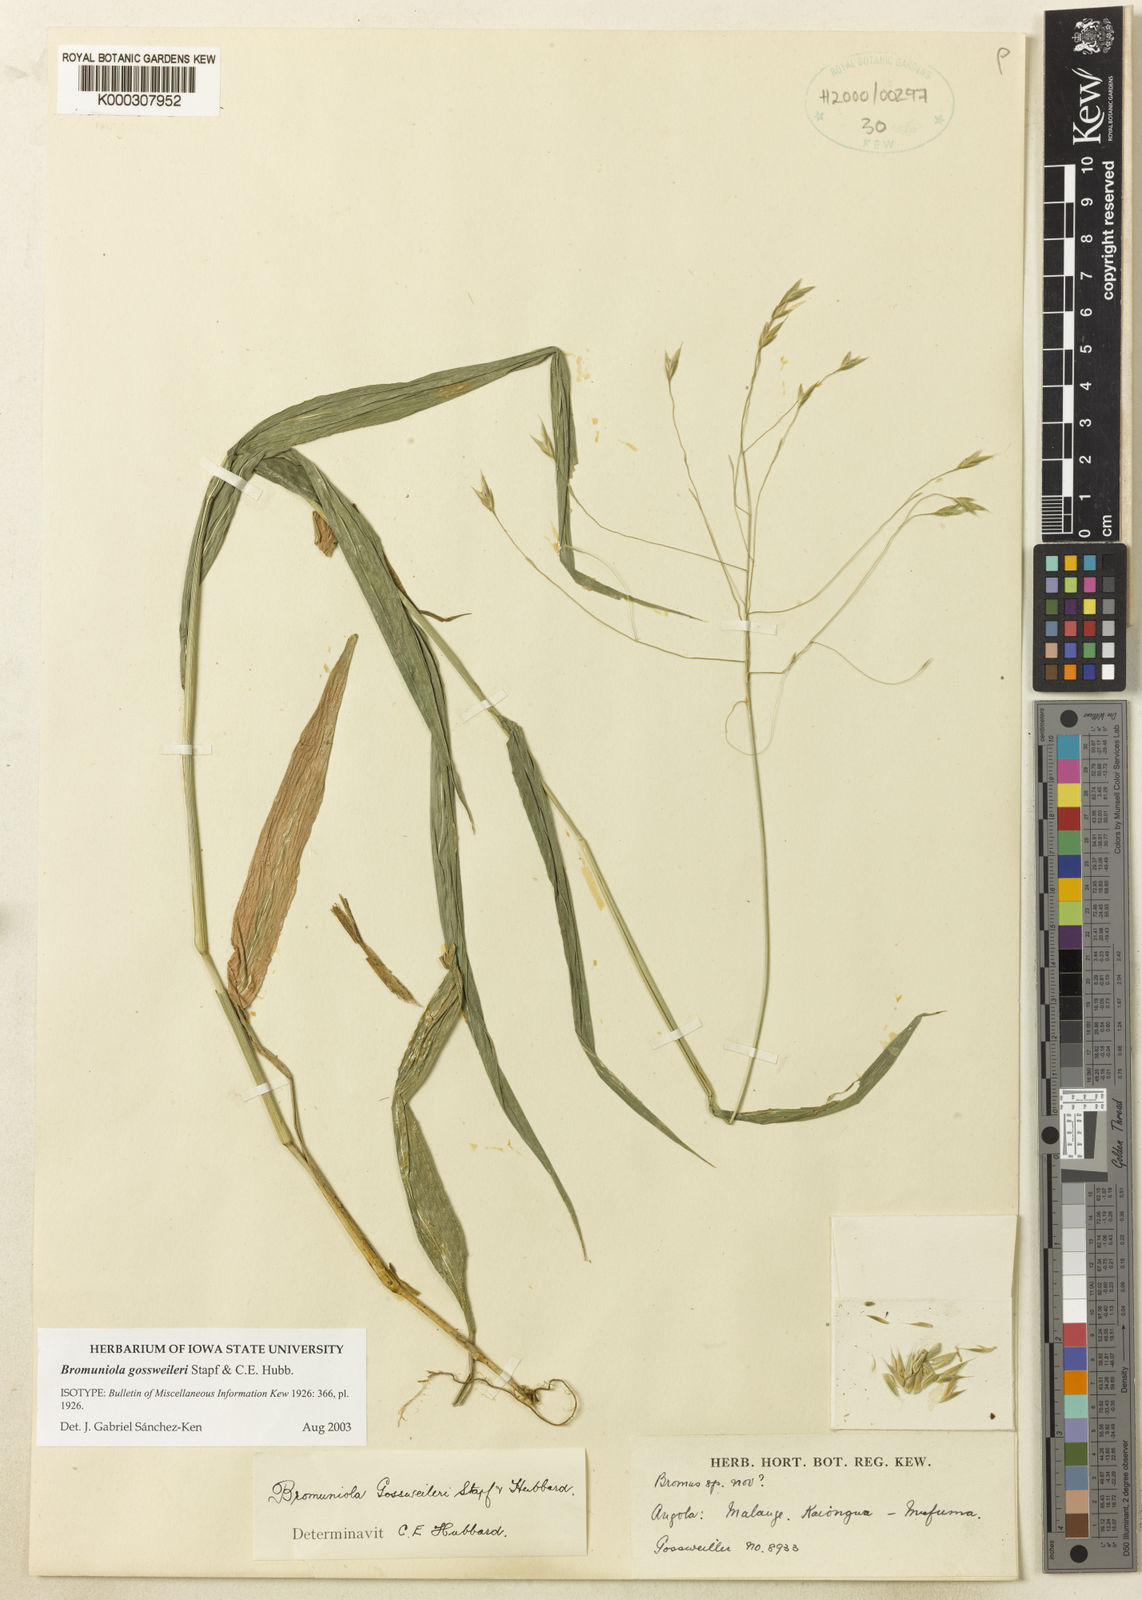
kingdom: Plantae
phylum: Tracheophyta
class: Liliopsida
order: Poales
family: Poaceae
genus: Bromuniola
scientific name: Bromuniola gossweileri
